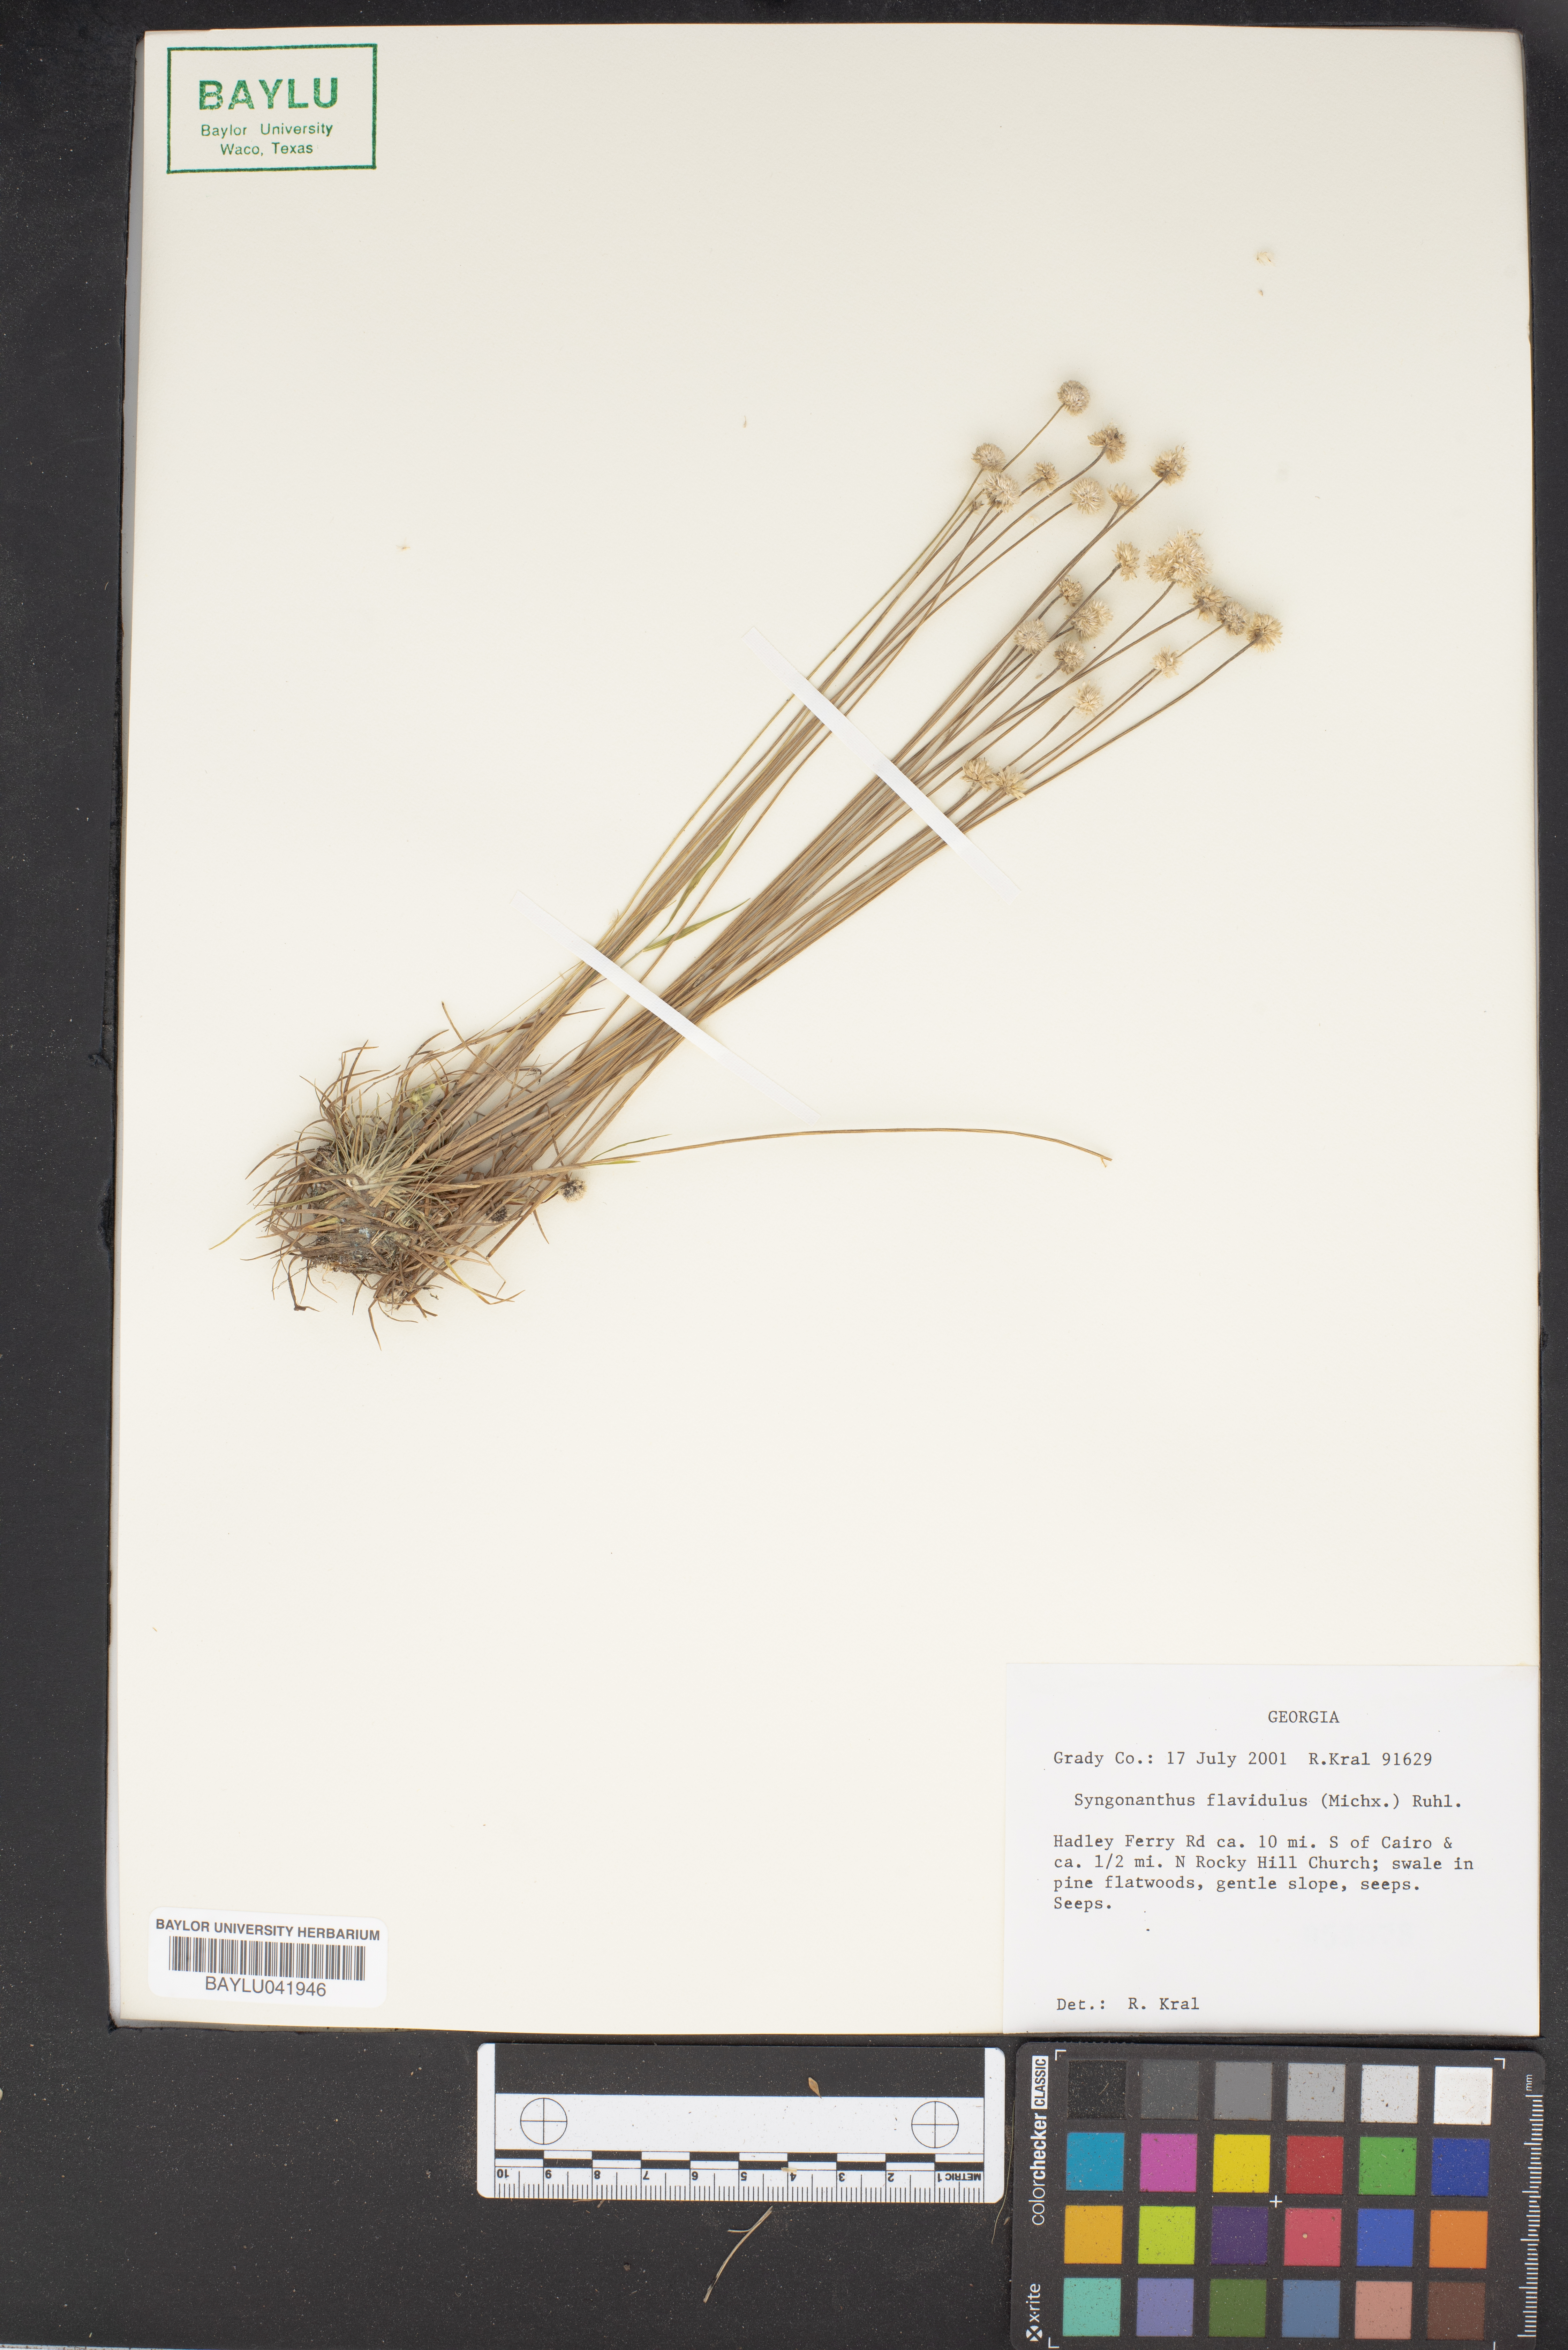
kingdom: Plantae
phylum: Tracheophyta
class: Liliopsida
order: Poales
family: Eriocaulaceae
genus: Syngonanthus
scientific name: Syngonanthus flavidulus
